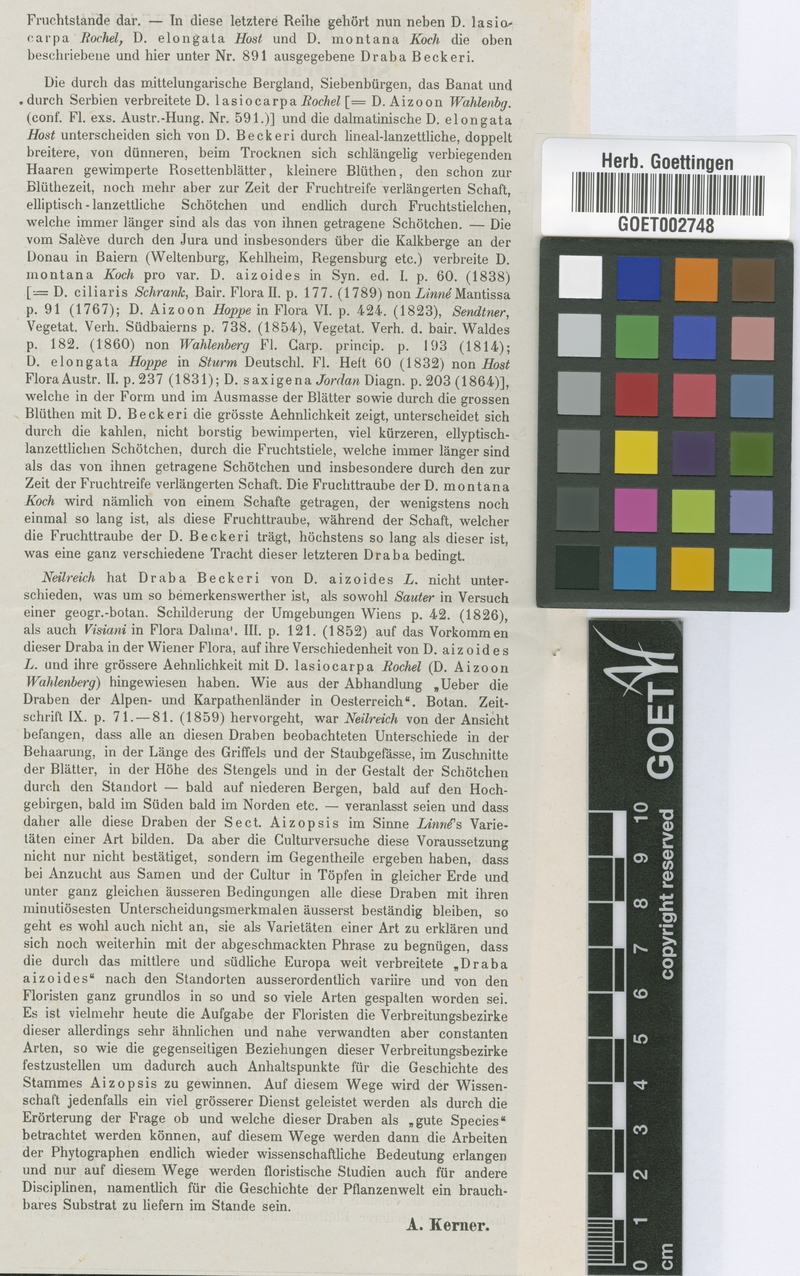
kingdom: Plantae
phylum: Tracheophyta
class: Magnoliopsida
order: Brassicales
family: Brassicaceae
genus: Draba
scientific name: Draba aizoides
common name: Yellow whitlowgrass
